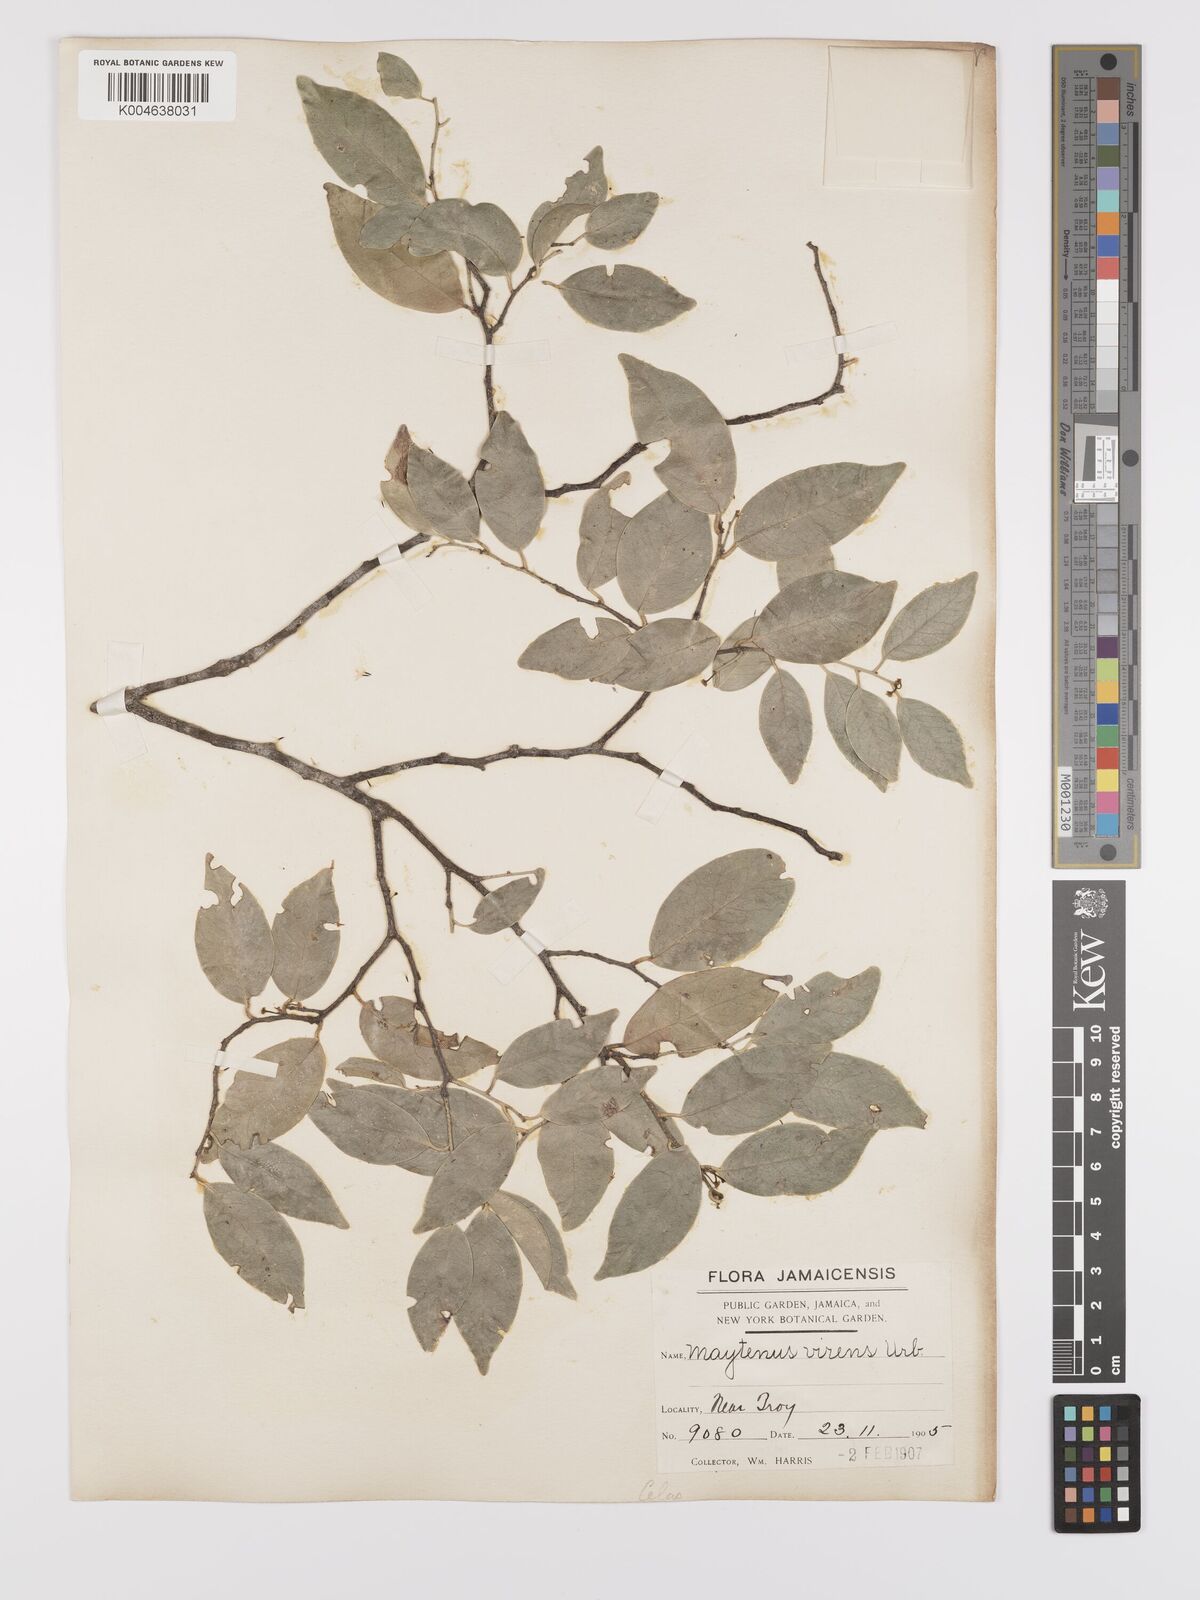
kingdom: Plantae
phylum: Tracheophyta
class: Magnoliopsida
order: Celastrales
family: Celastraceae
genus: Monteverdia
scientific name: Monteverdia virens
